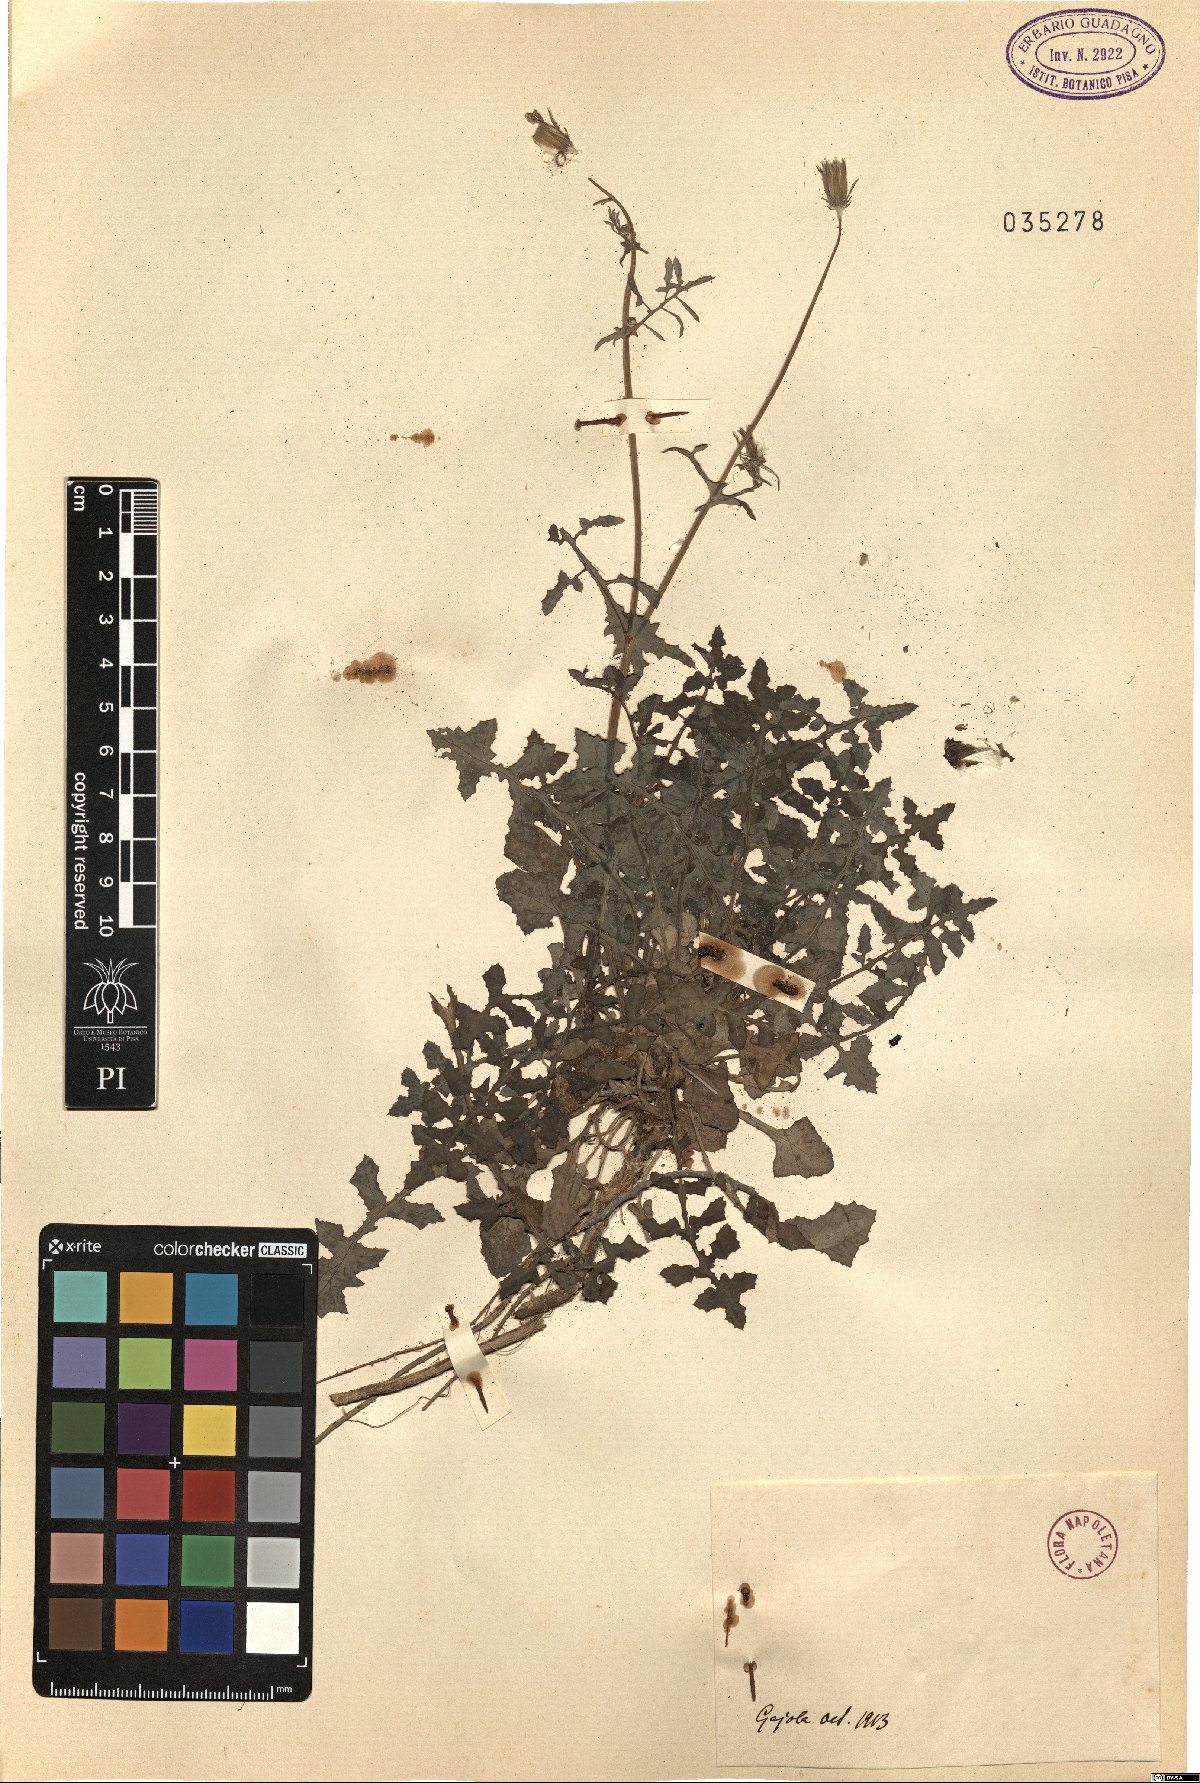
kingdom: Plantae
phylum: Tracheophyta
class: Magnoliopsida
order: Asterales
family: Asteraceae
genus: Sonchus
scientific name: Sonchus
